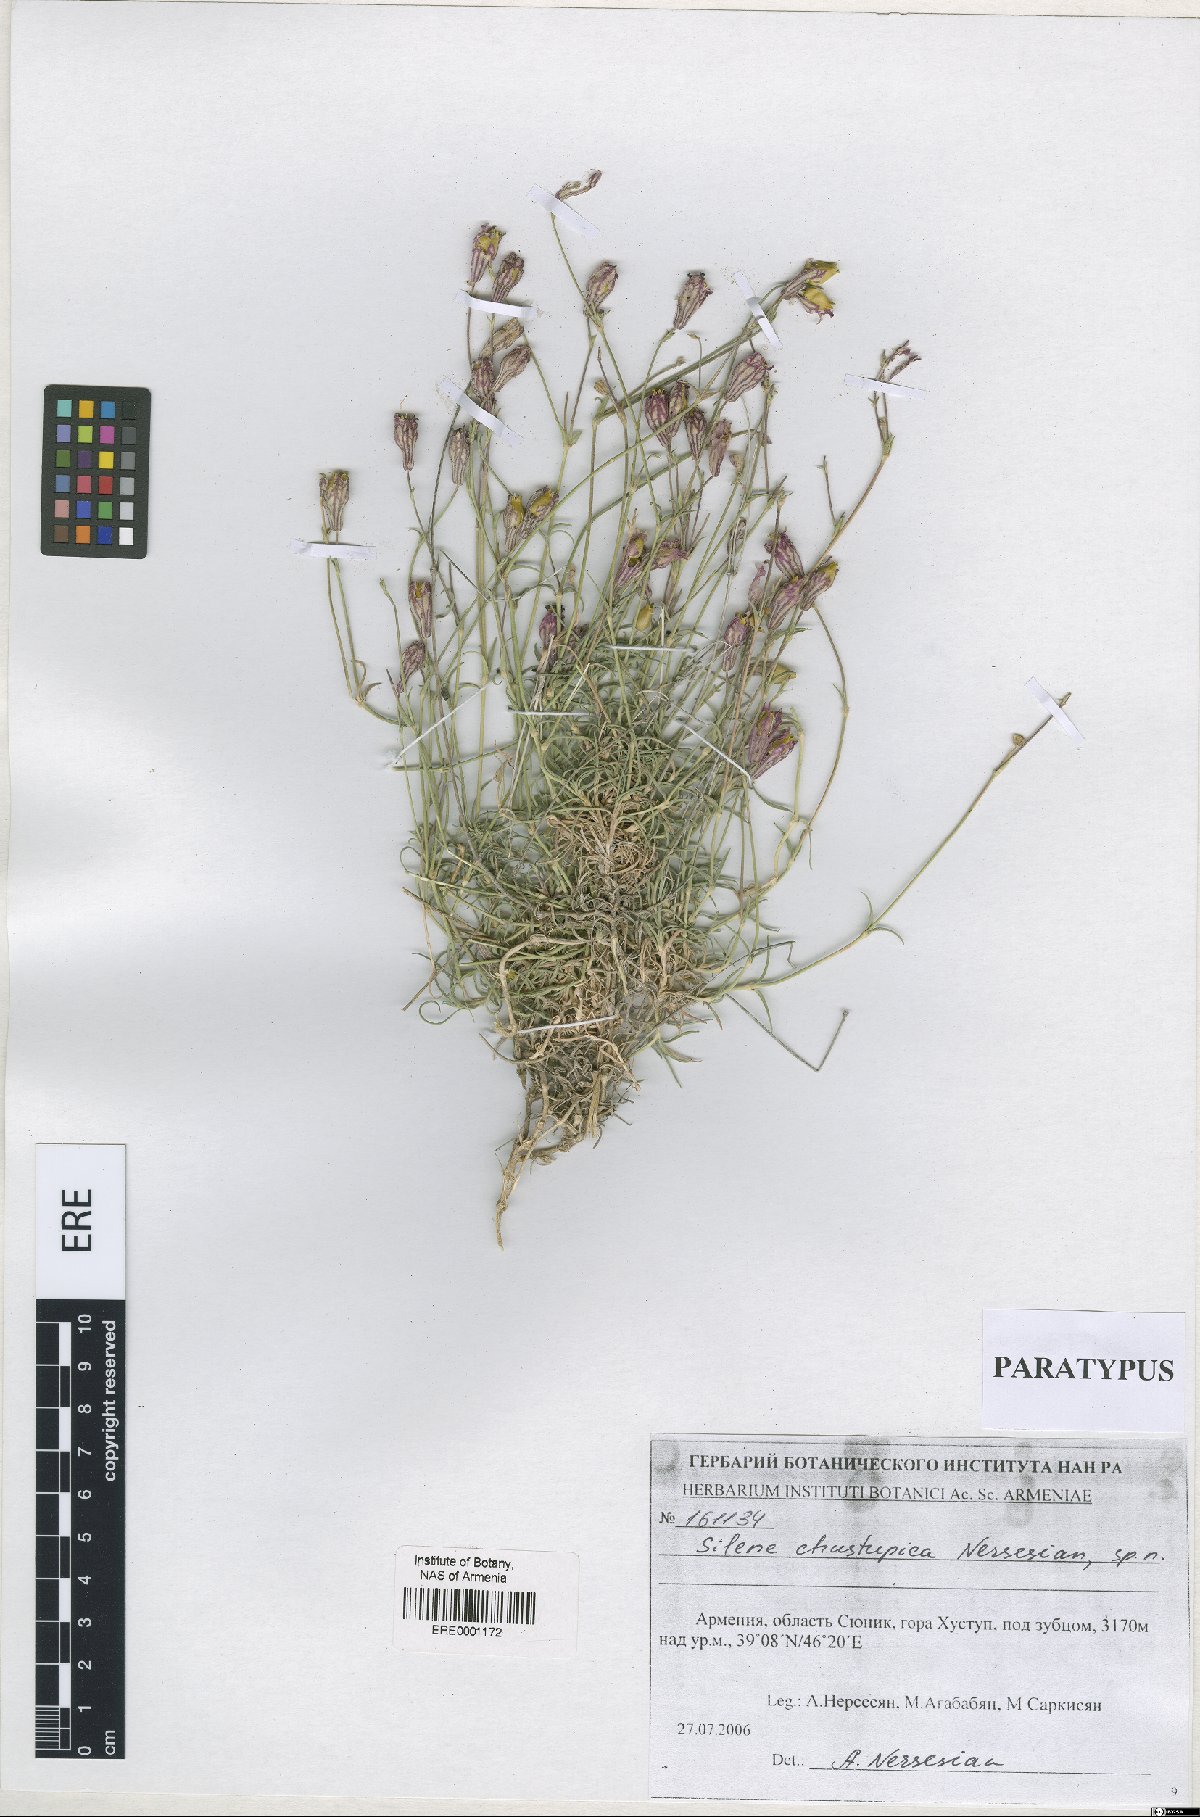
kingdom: Plantae
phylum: Tracheophyta
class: Magnoliopsida
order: Caryophyllales
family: Caryophyllaceae
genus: Silene
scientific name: Silene pungens
